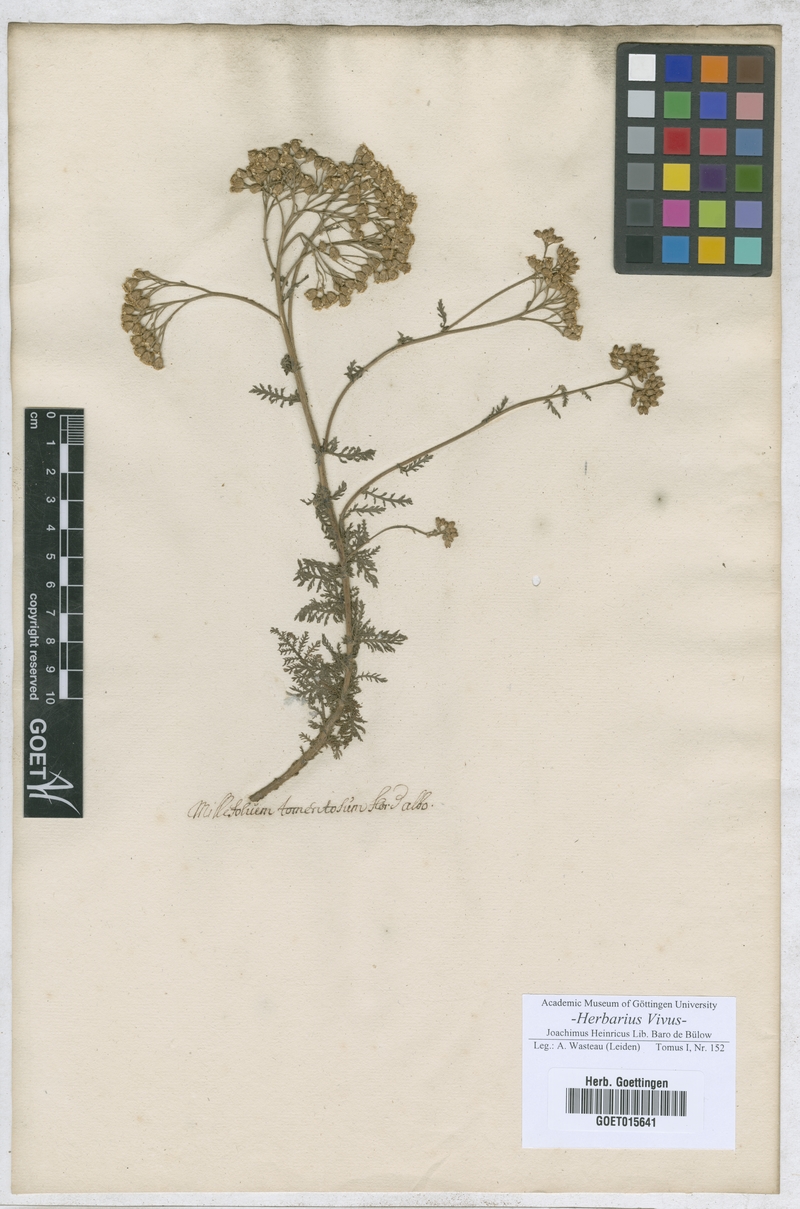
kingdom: Plantae
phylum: Tracheophyta
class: Magnoliopsida
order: Asterales
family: Asteraceae
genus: Millefolium
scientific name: Millefolium
